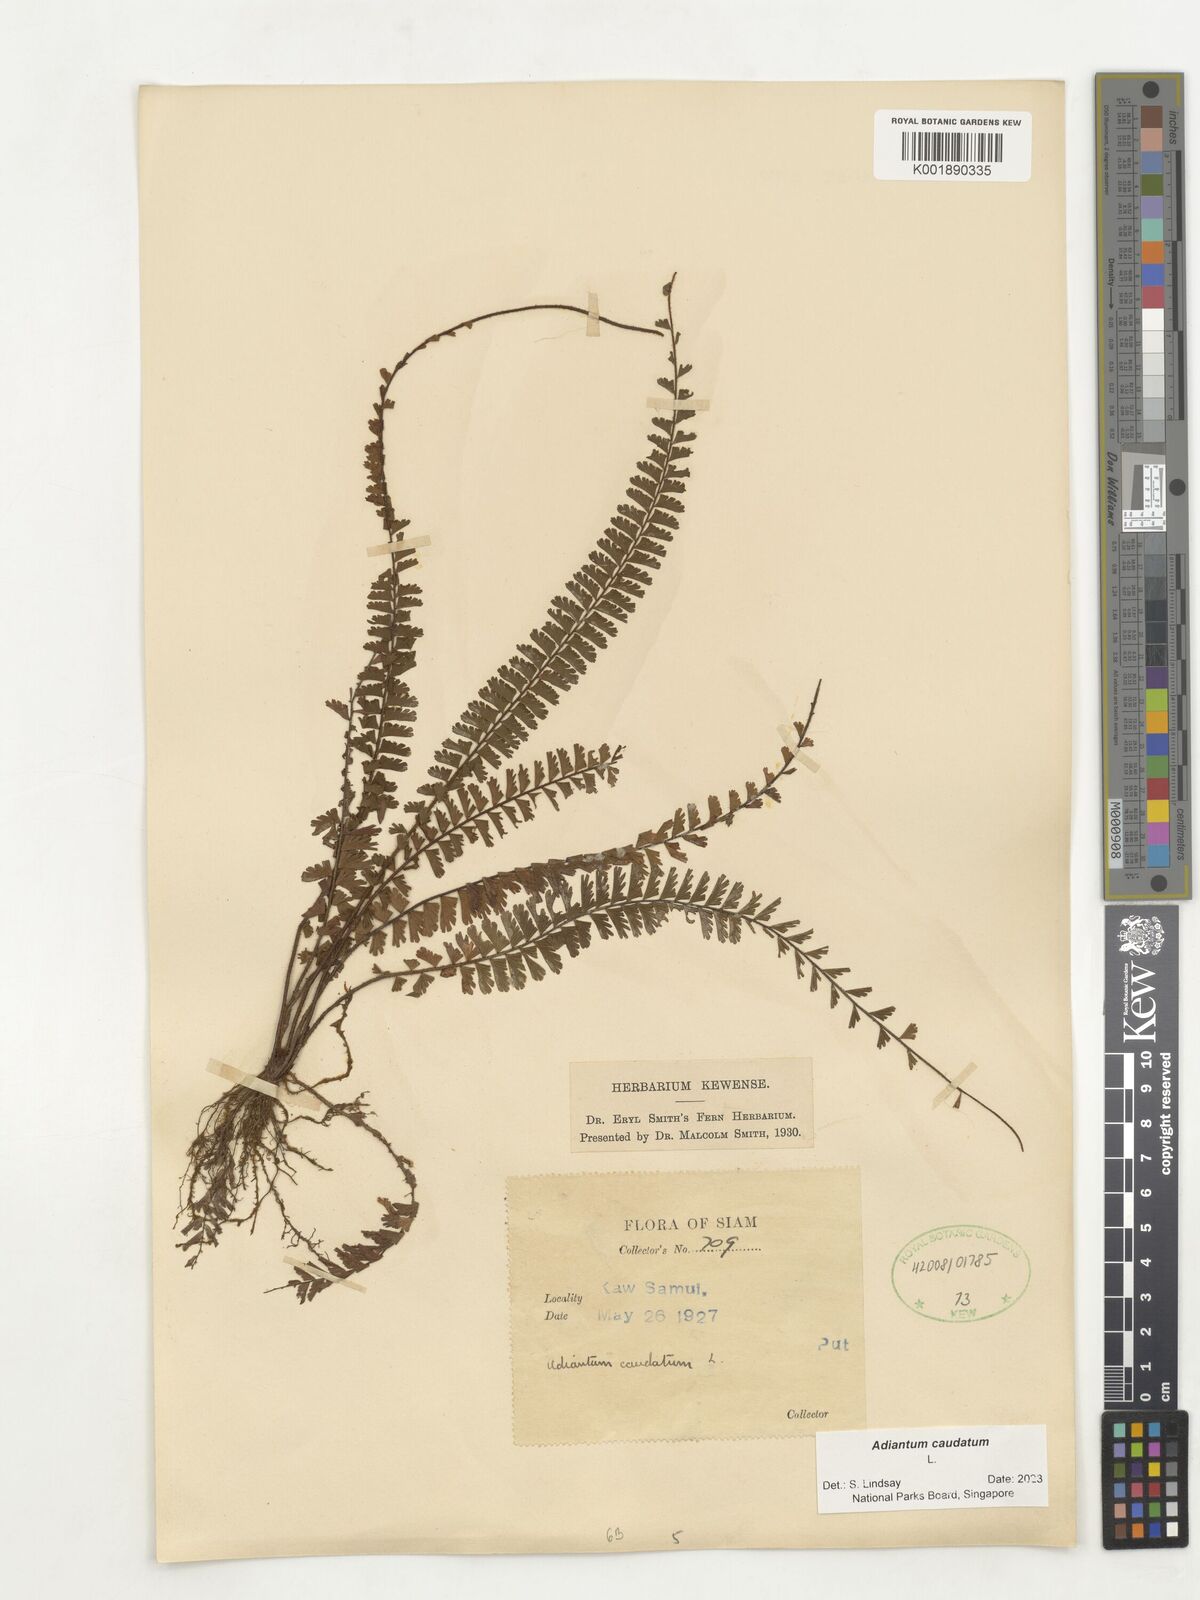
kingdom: Plantae
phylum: Tracheophyta
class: Polypodiopsida
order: Polypodiales
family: Pteridaceae
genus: Adiantum
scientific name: Adiantum caudatum
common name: Tailed maidenhair
